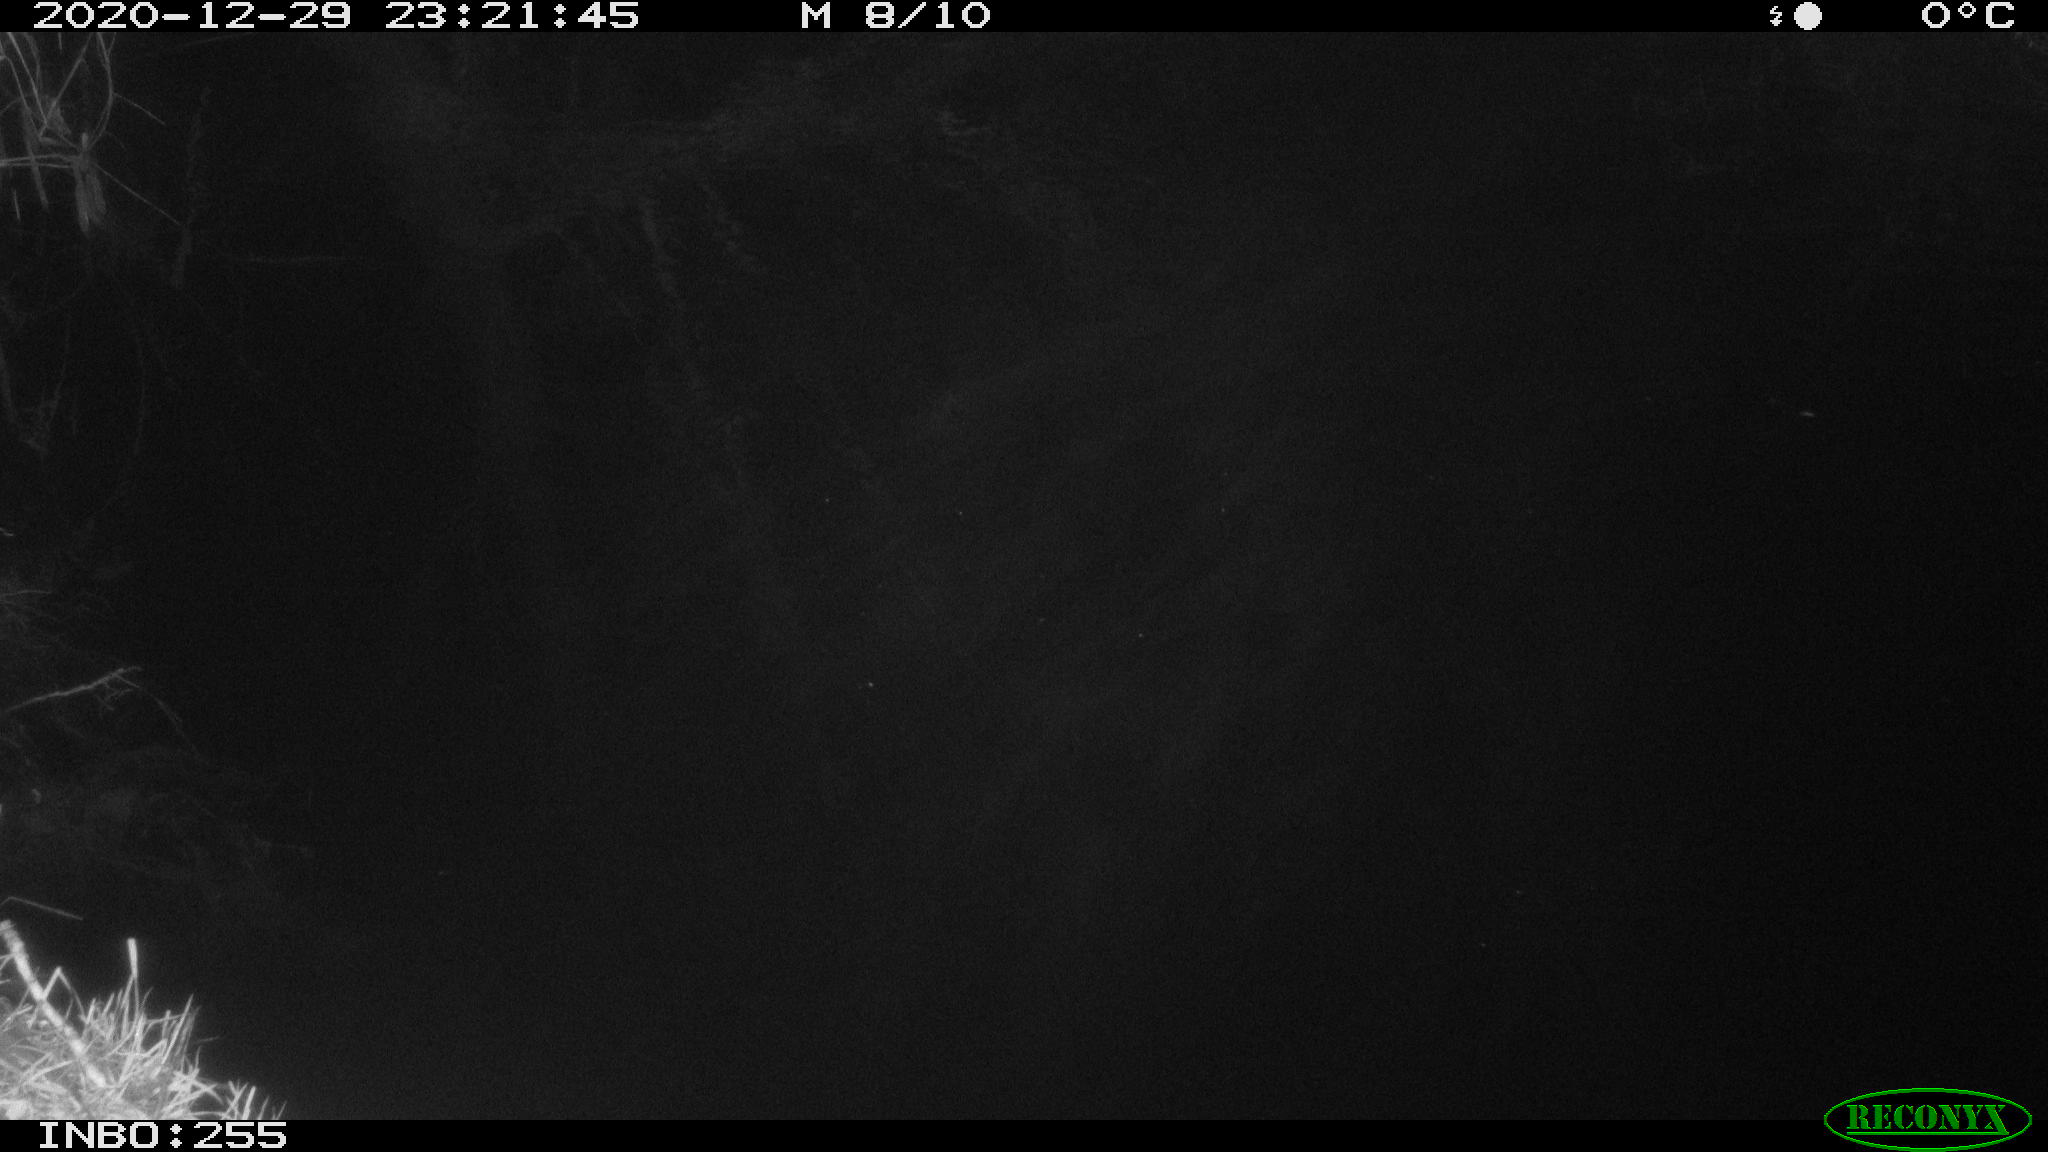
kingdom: Animalia
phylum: Chordata
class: Mammalia
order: Rodentia
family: Muridae
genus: Rattus
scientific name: Rattus norvegicus
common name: Brown rat
